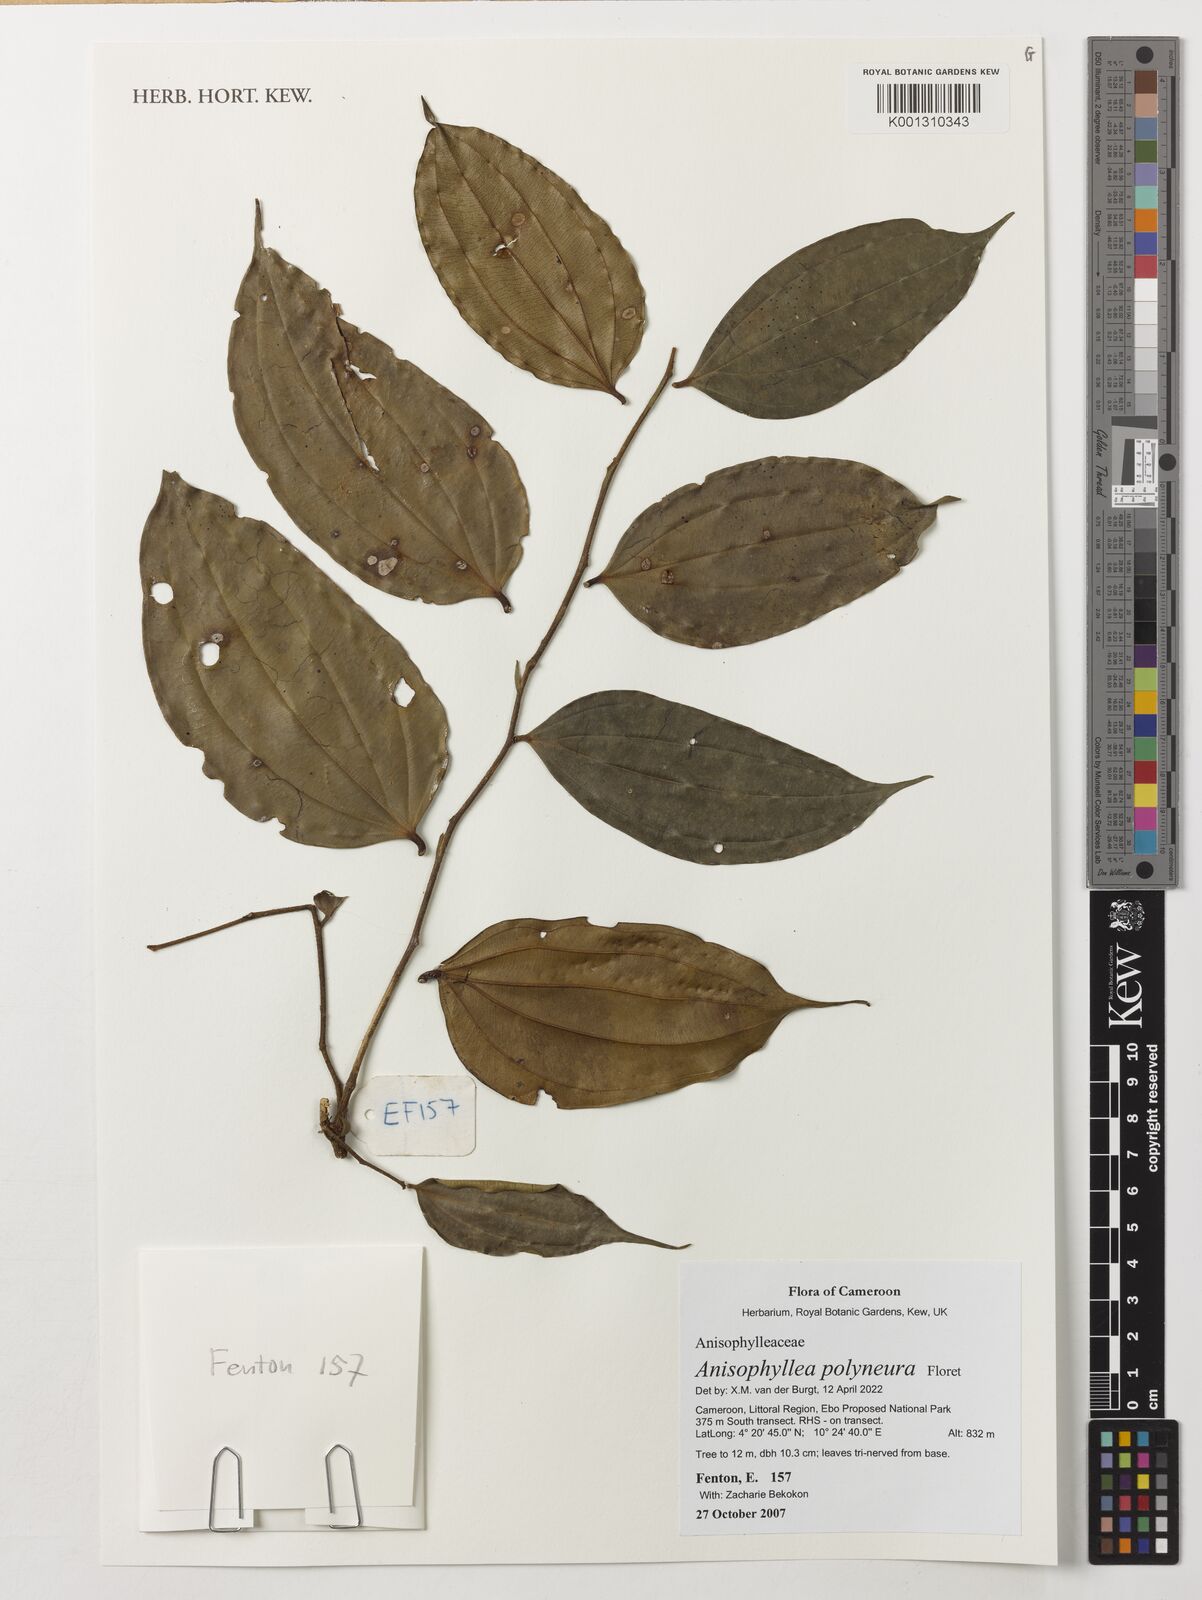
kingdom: Plantae
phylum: Tracheophyta
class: Magnoliopsida
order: Cucurbitales
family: Anisophylleaceae
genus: Anisophyllea
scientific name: Anisophyllea polyneura
